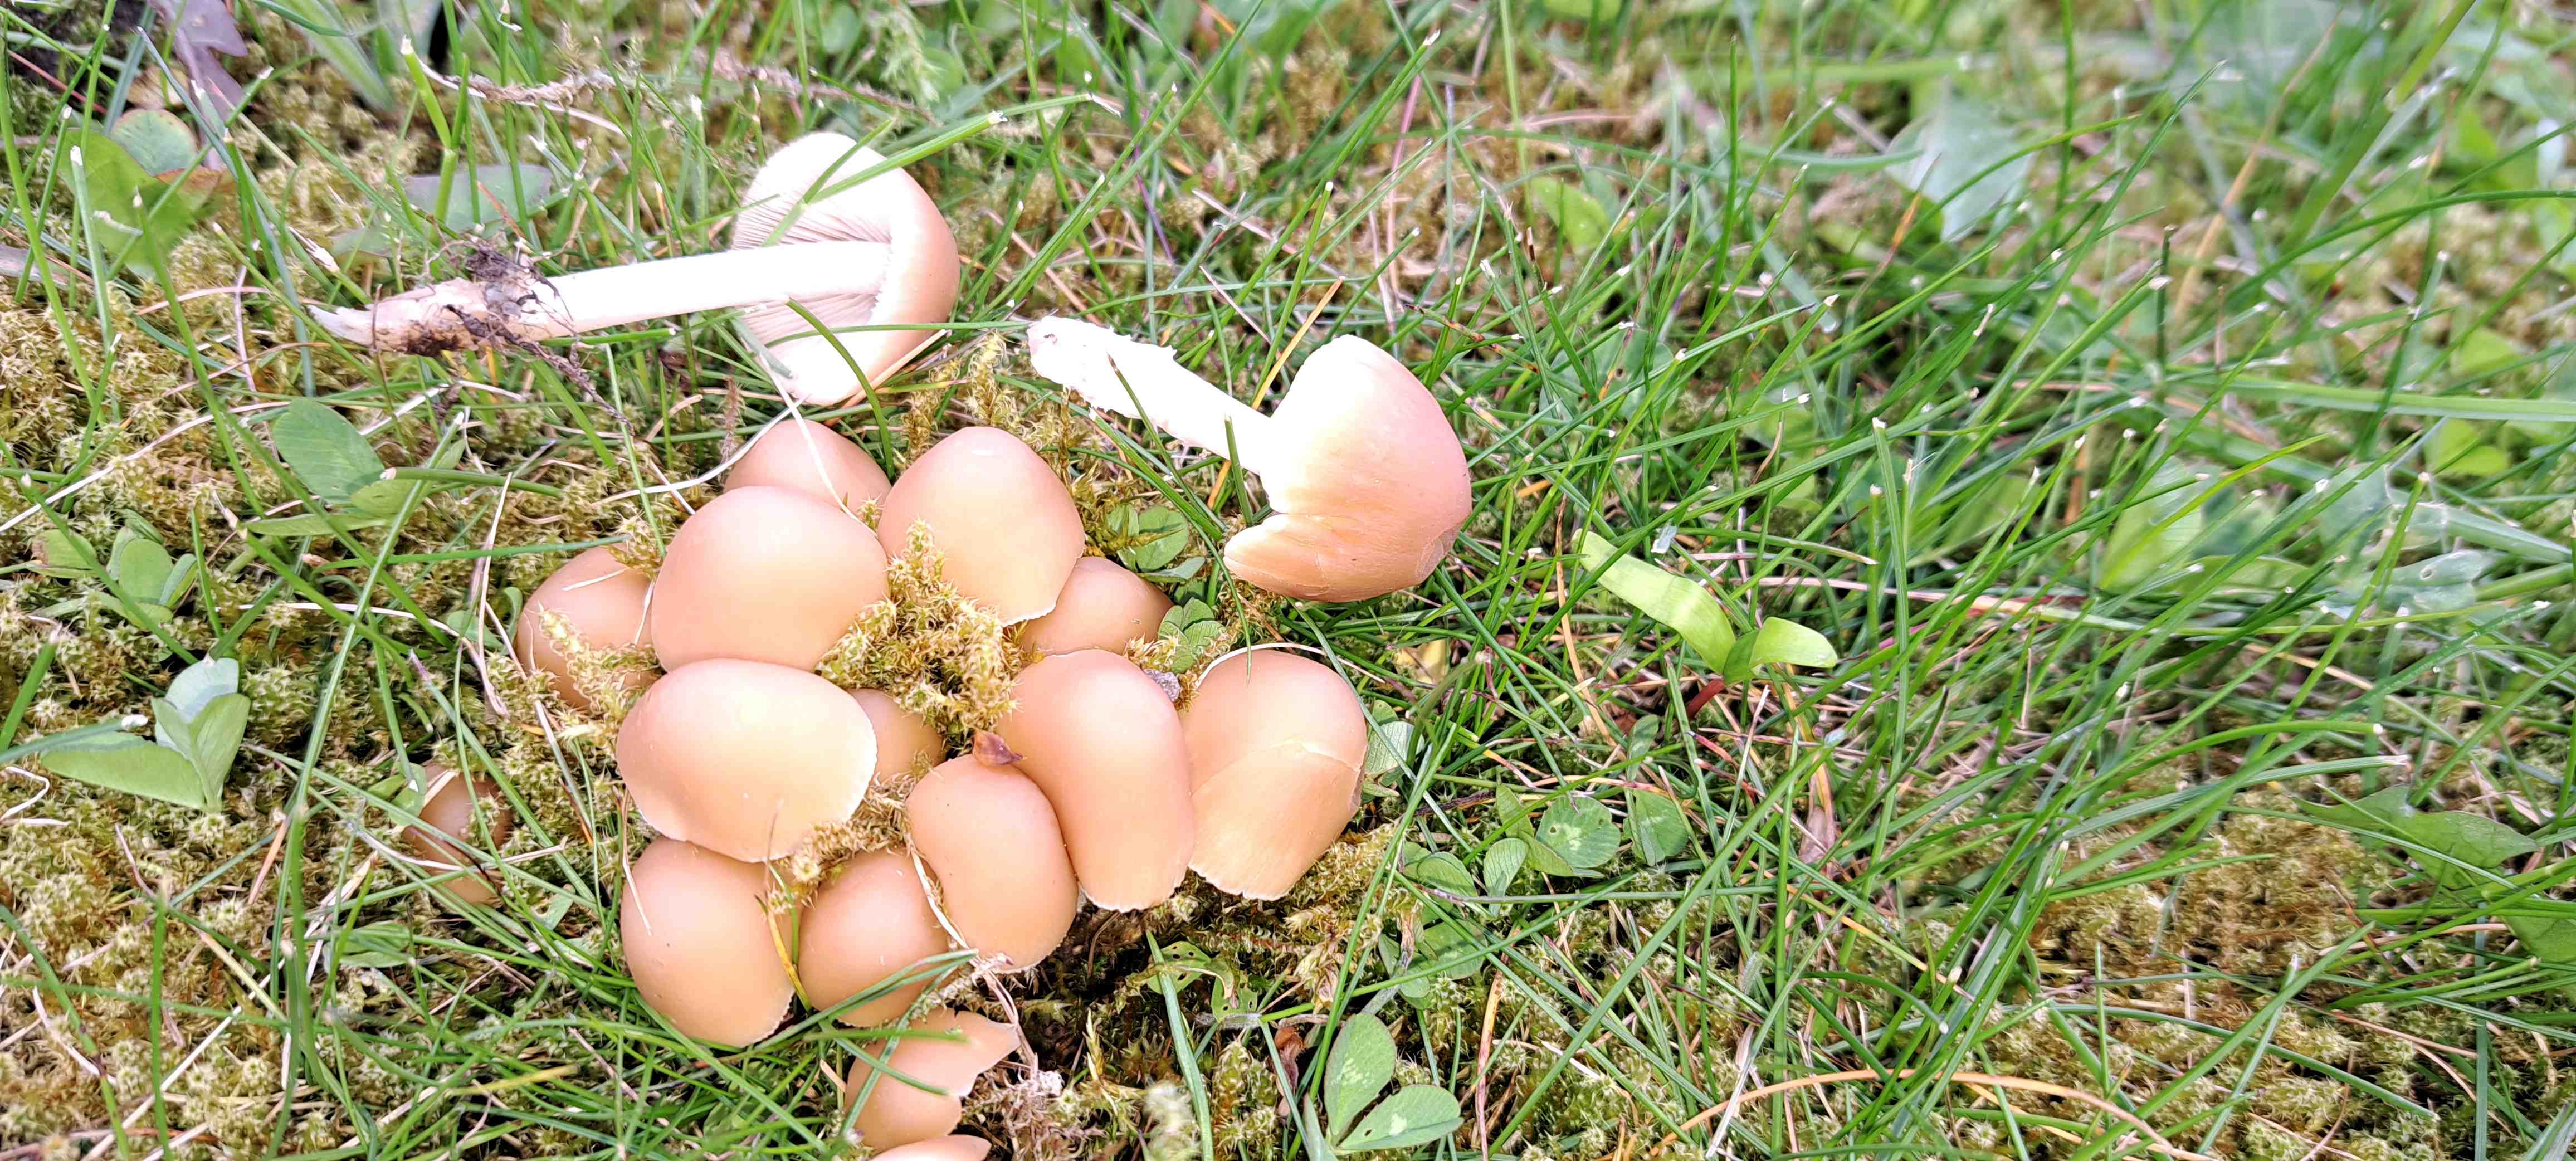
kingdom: Fungi
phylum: Basidiomycota
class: Agaricomycetes
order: Agaricales
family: Psathyrellaceae
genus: Candolleomyces
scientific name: Candolleomyces candolleanus
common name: Candolles mørkhat
